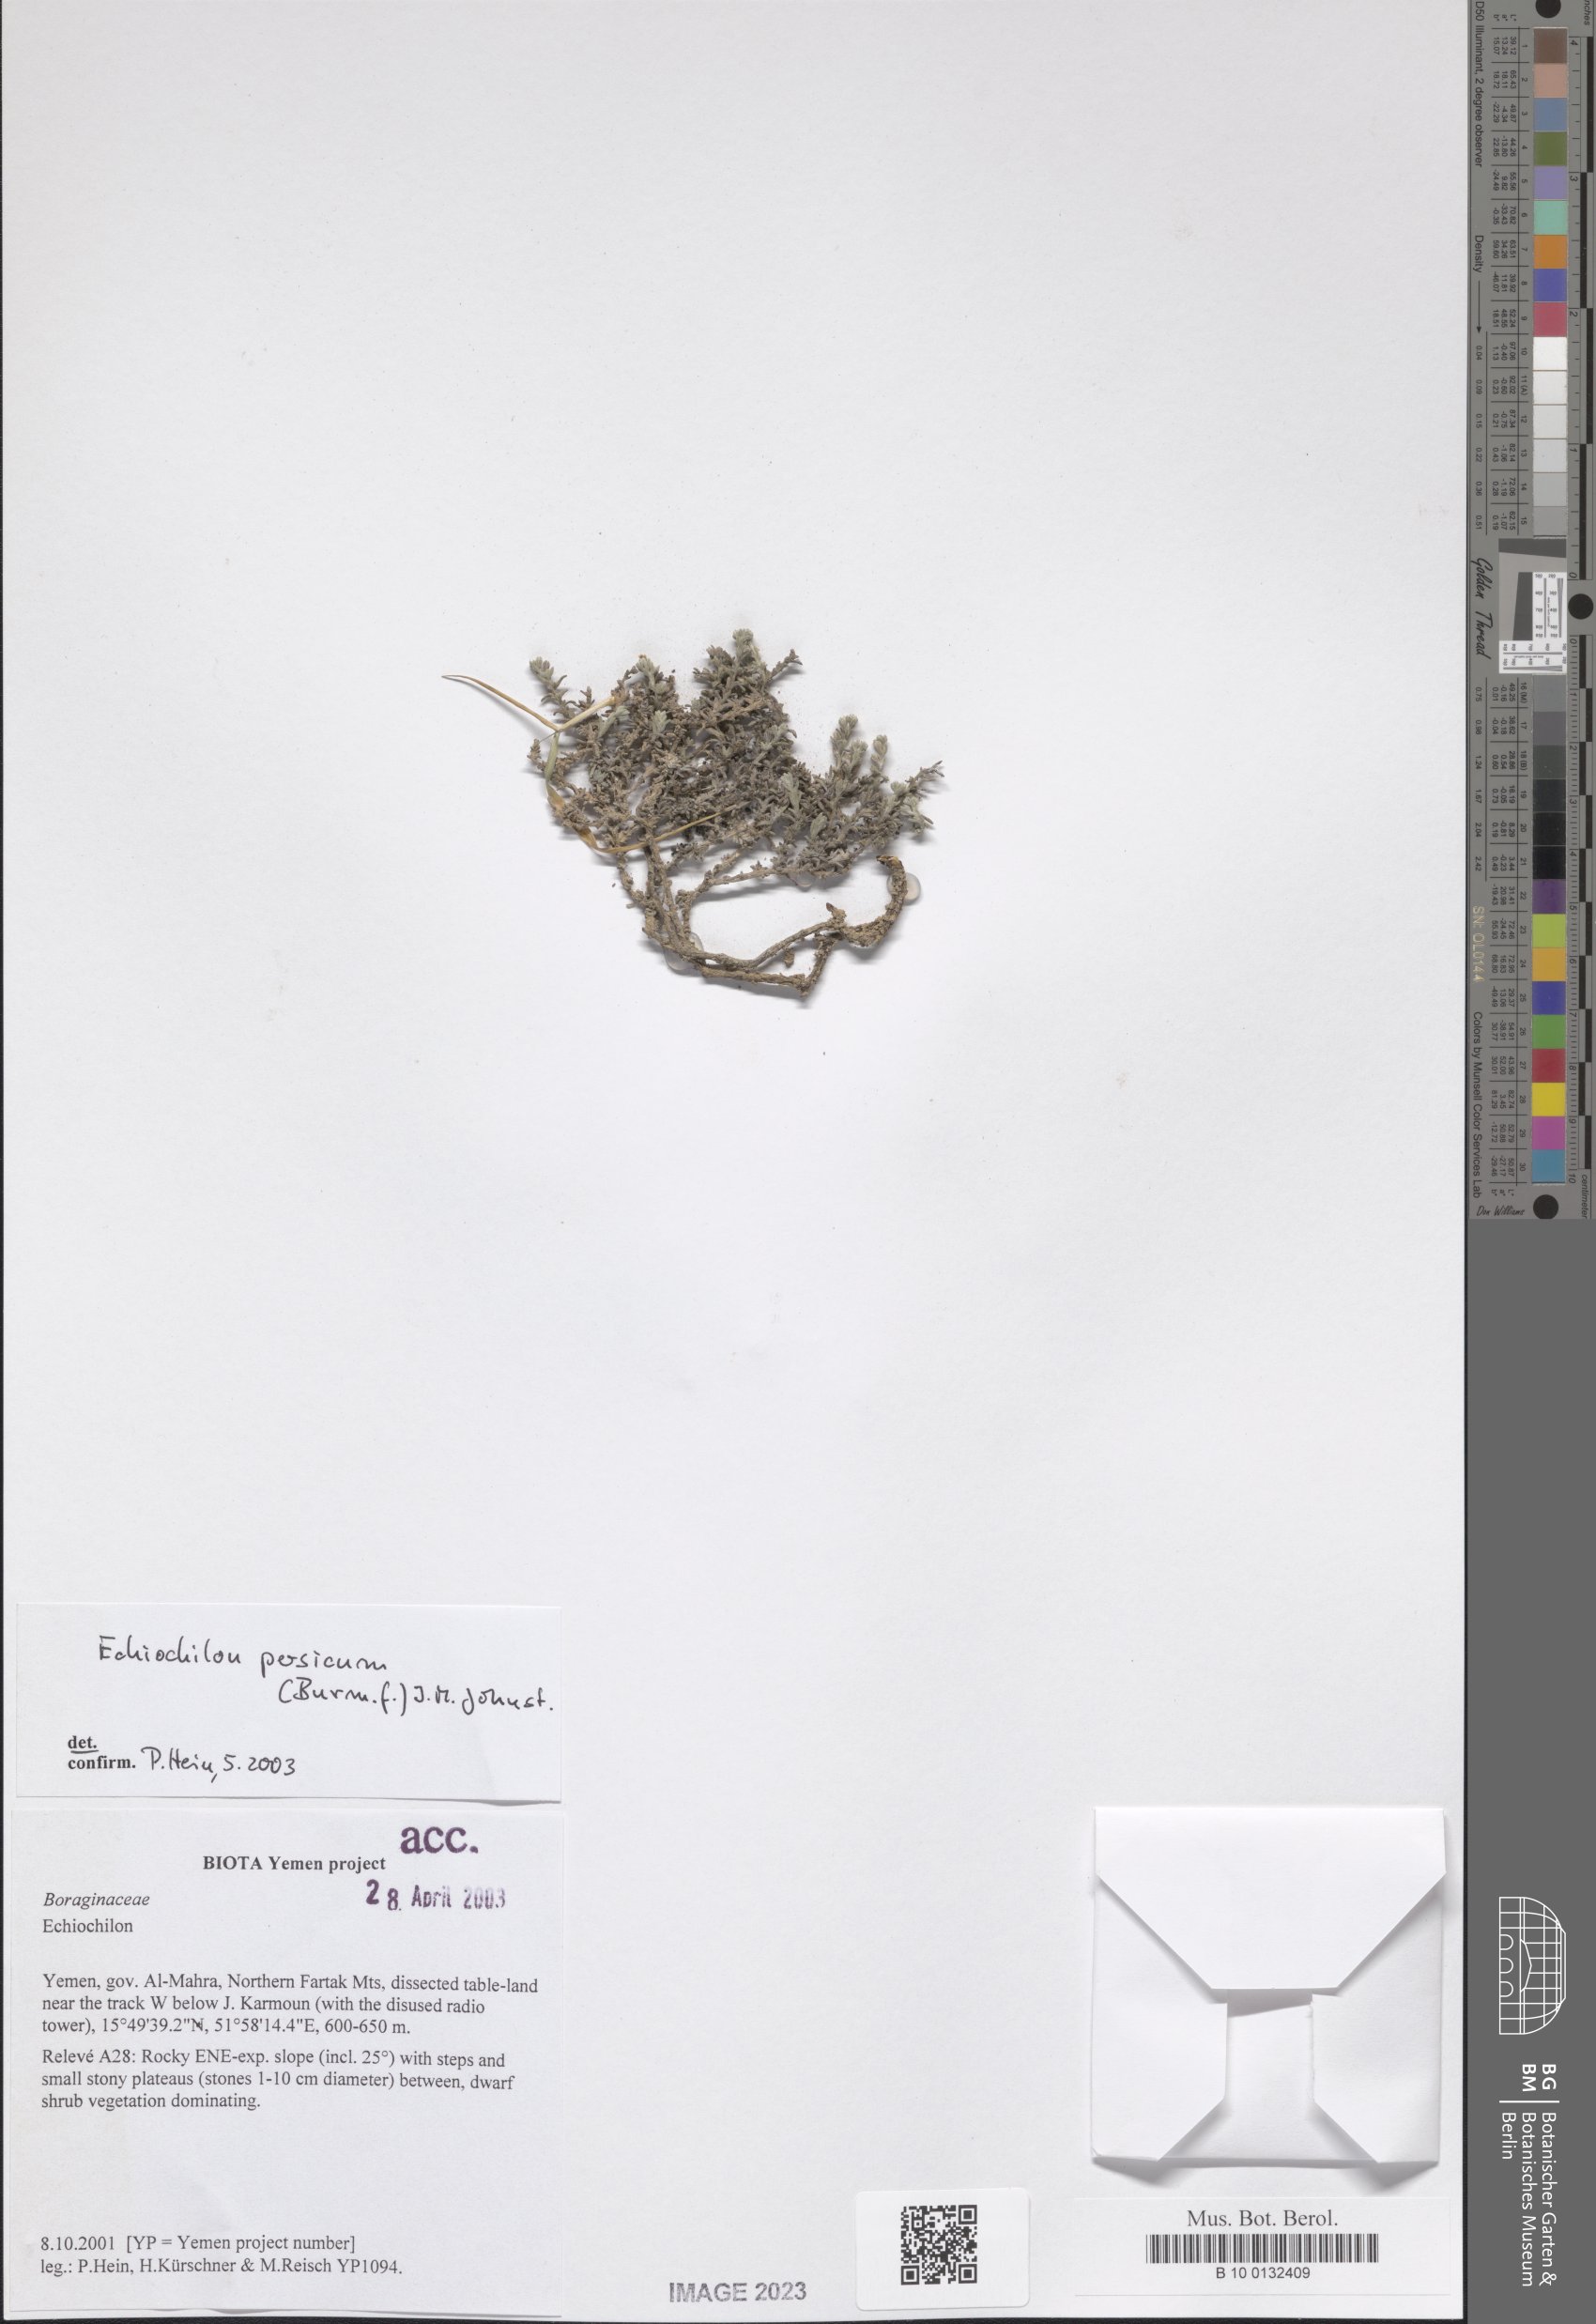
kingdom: Plantae
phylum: Tracheophyta
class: Magnoliopsida
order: Boraginales
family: Boraginaceae
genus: Echiochilon
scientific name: Echiochilon persicum
